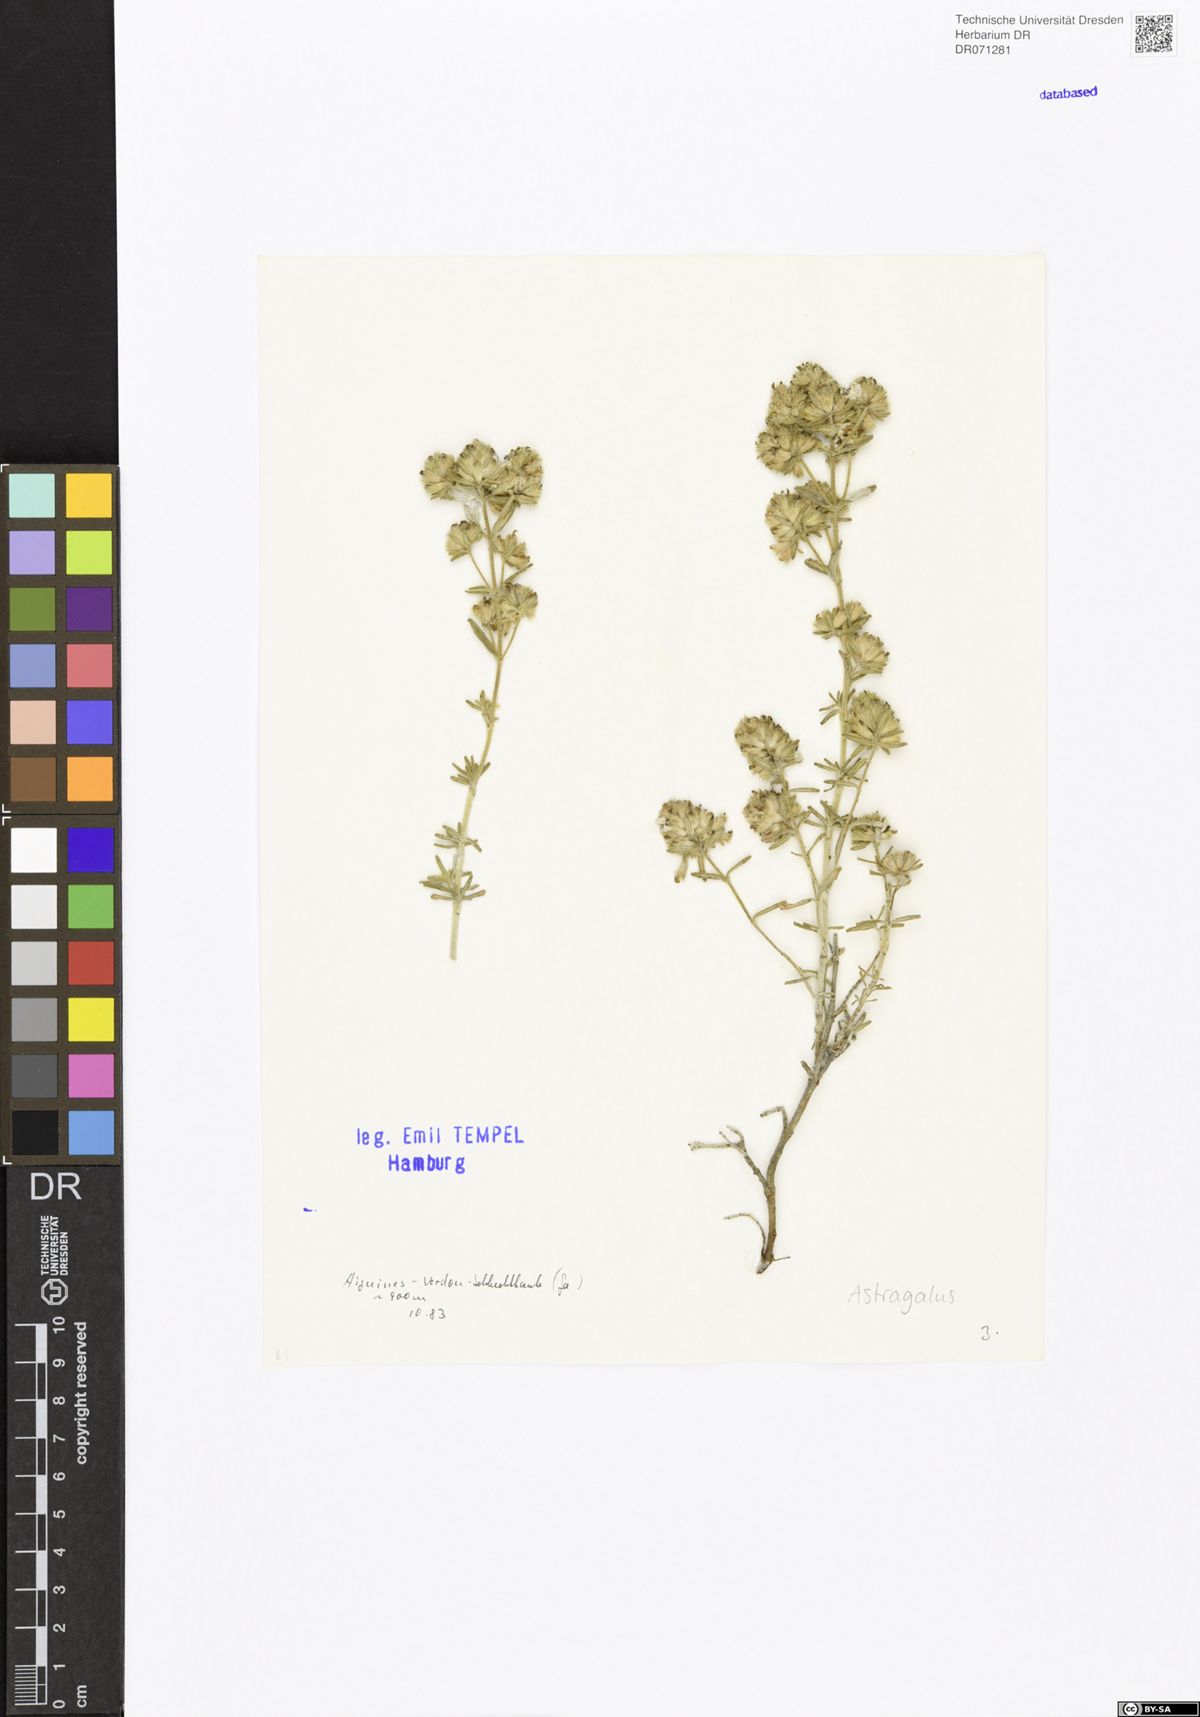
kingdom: Plantae
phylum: Tracheophyta
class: Magnoliopsida
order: Fabales
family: Fabaceae
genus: Astragalus
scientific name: Astragalus
